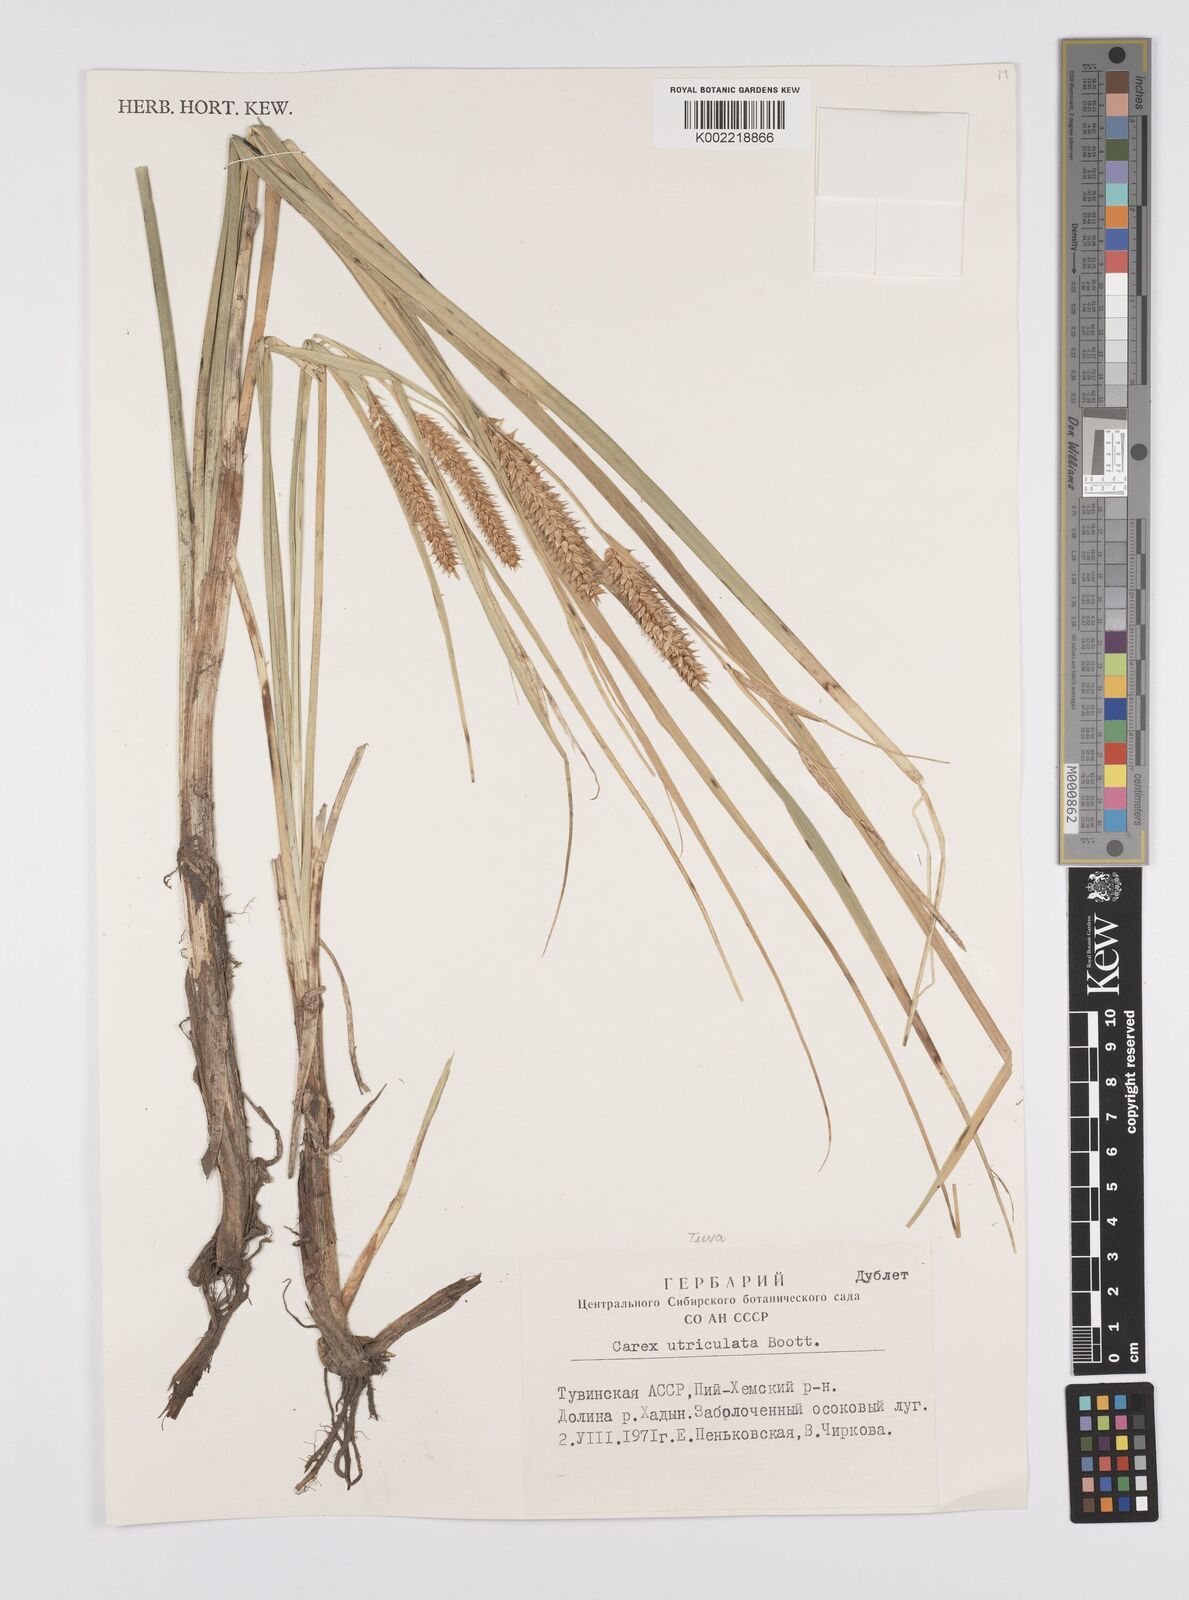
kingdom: Plantae
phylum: Tracheophyta
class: Liliopsida
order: Poales
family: Cyperaceae
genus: Carex
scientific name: Carex lurida
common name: Sallow sedge
